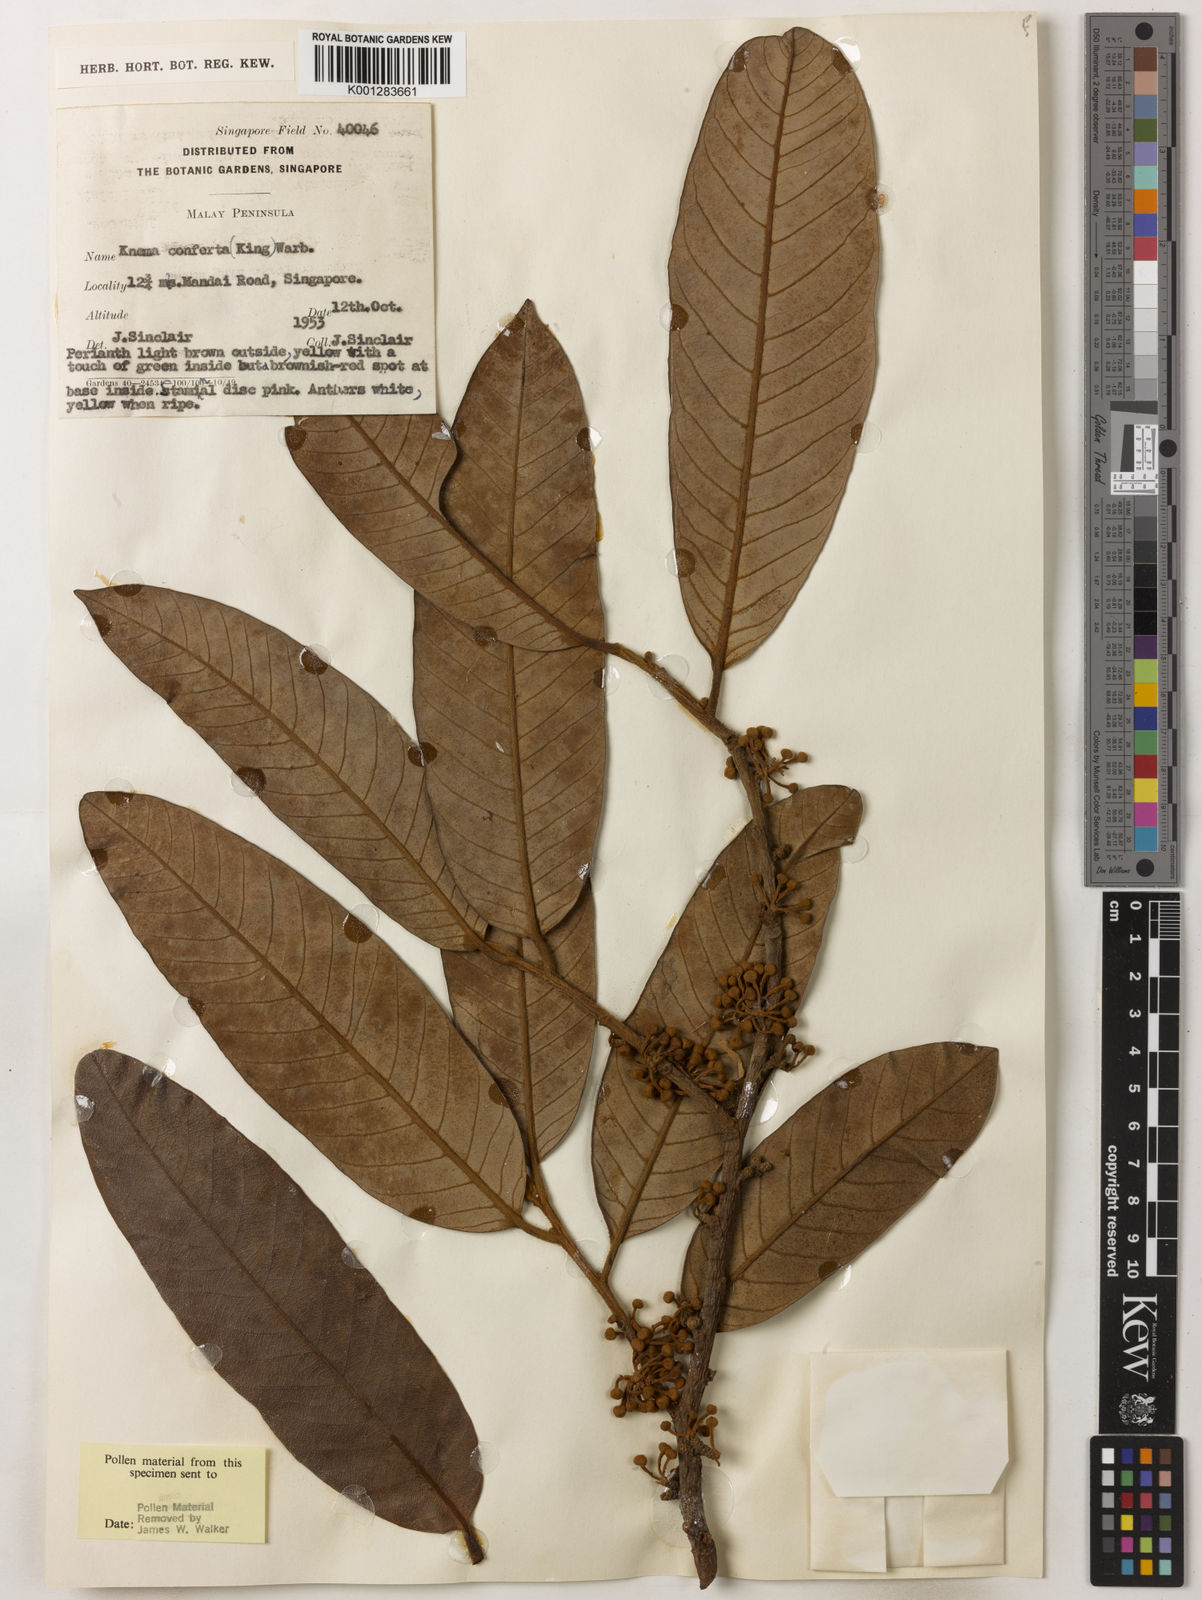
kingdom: Plantae
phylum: Tracheophyta
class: Magnoliopsida
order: Magnoliales
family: Myristicaceae
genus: Knema
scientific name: Knema conferta
